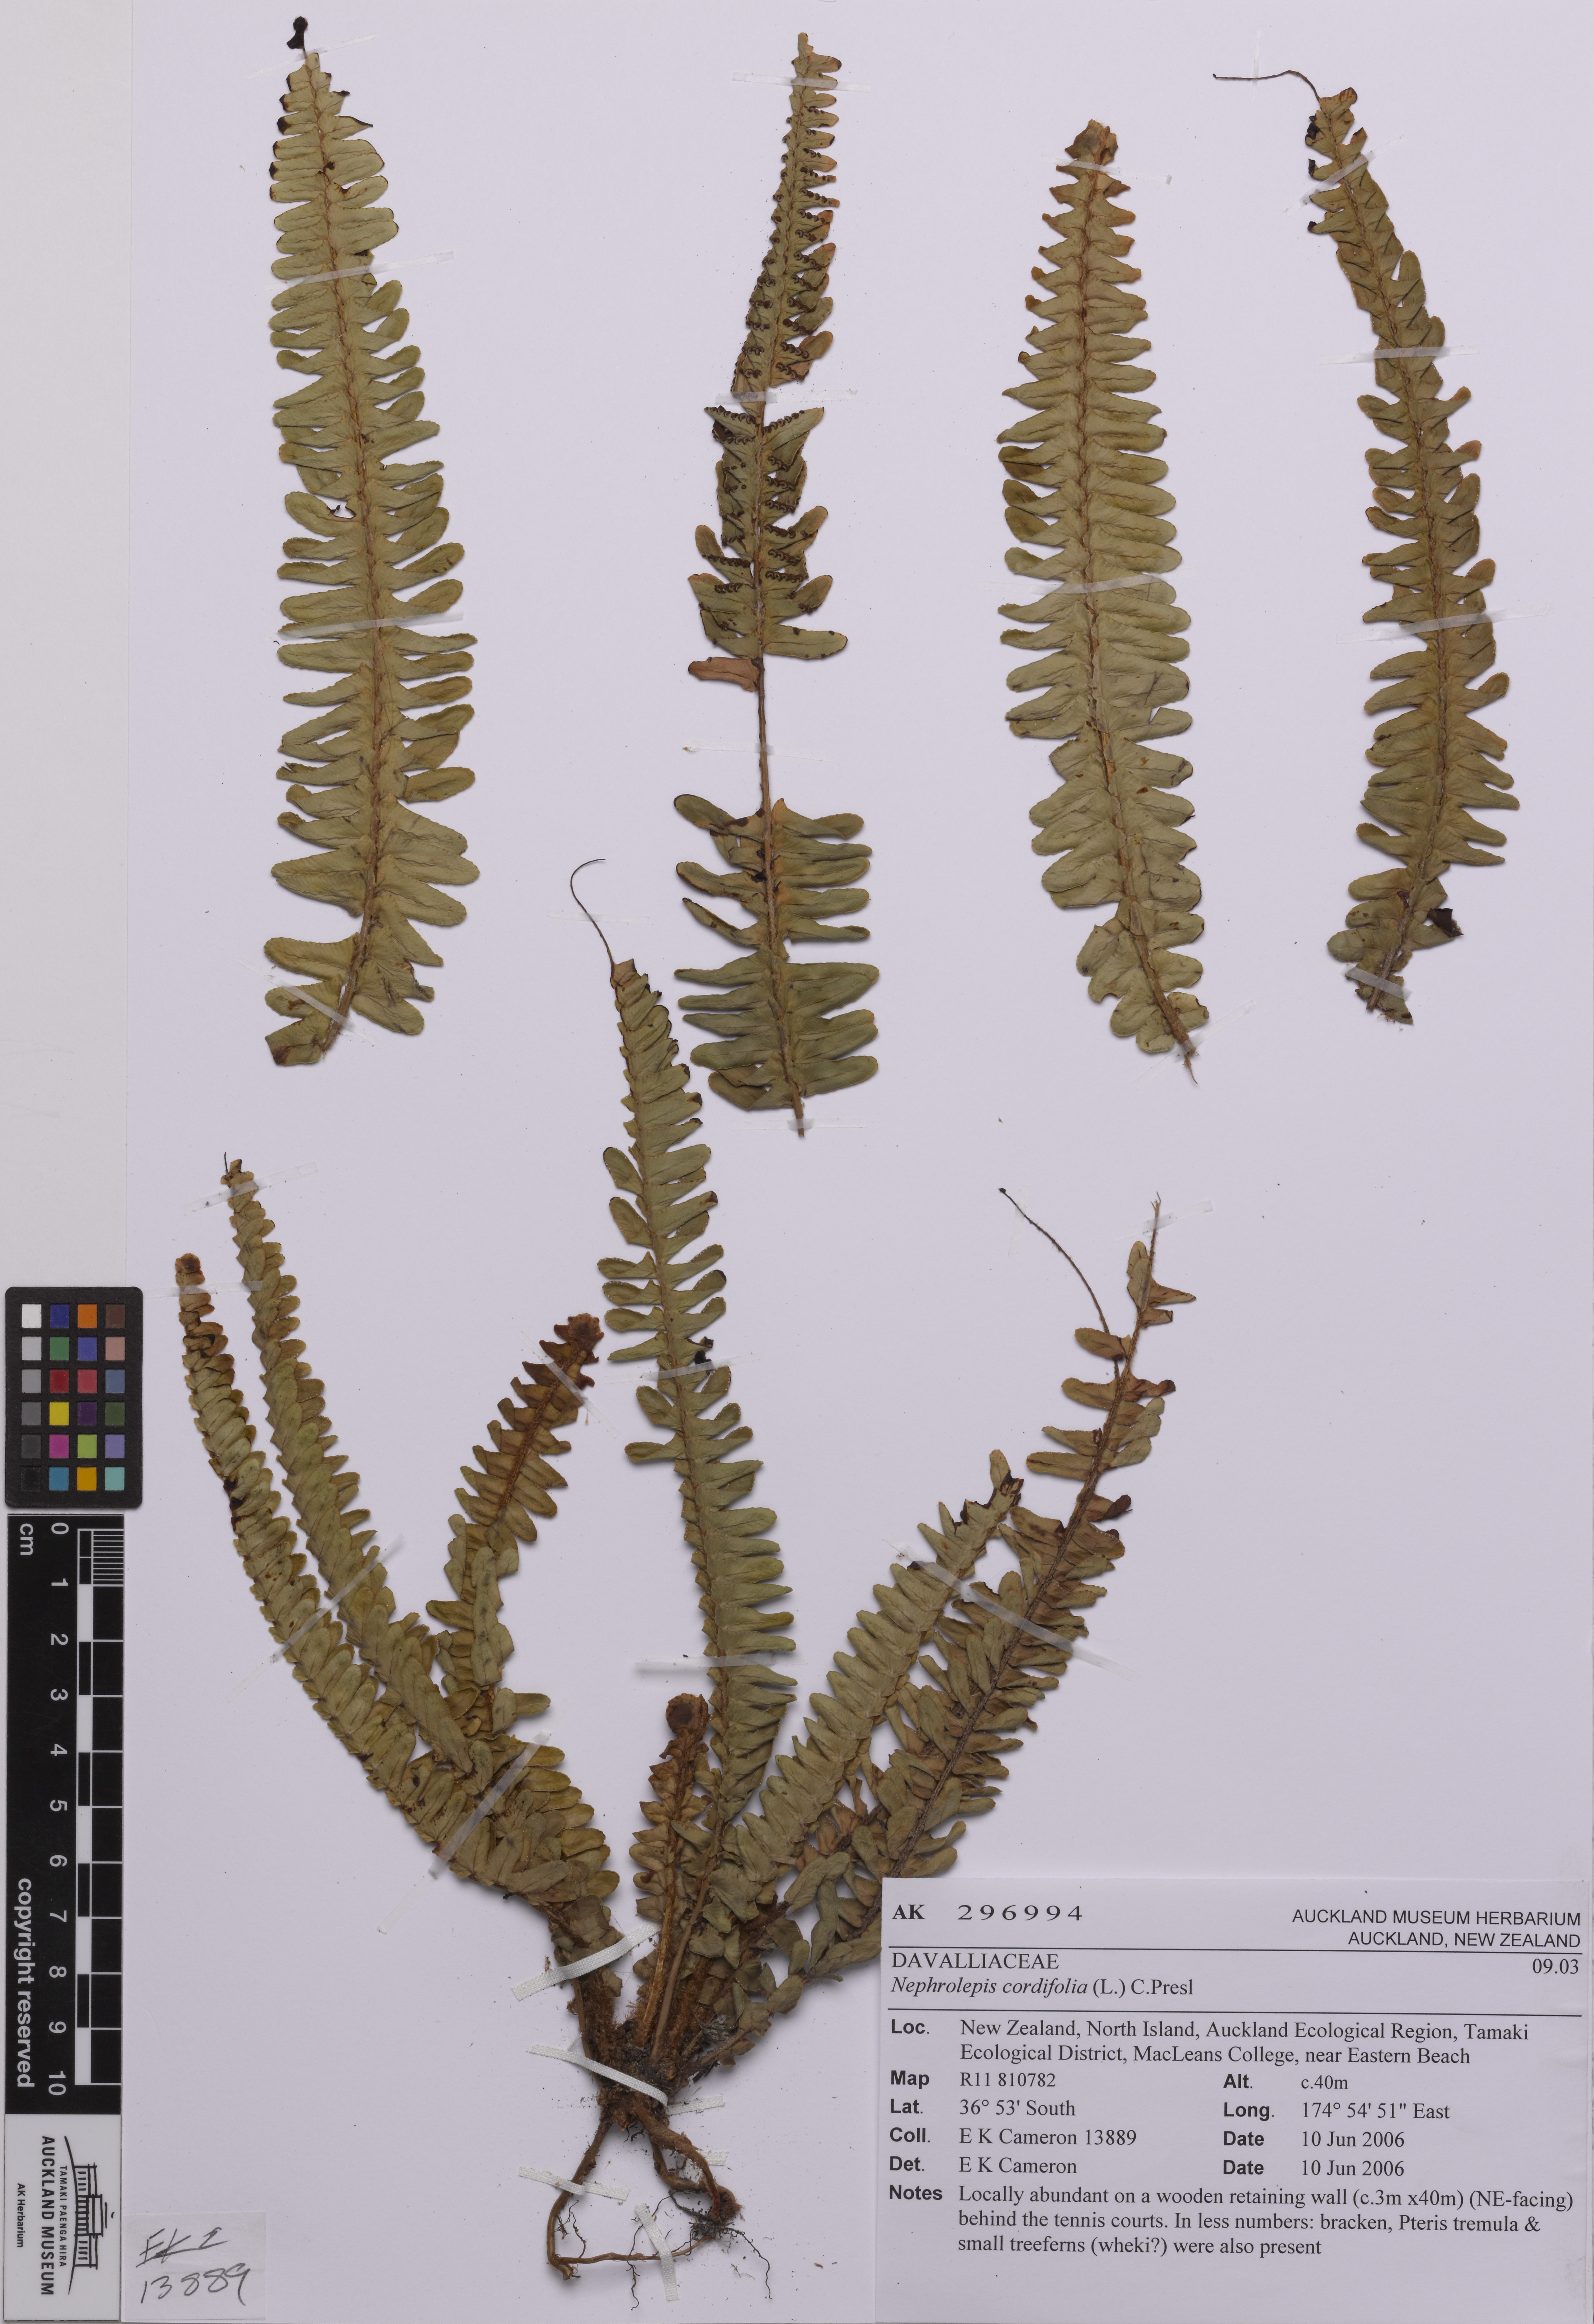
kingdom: Plantae
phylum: Tracheophyta
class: Polypodiopsida
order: Polypodiales
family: Nephrolepidaceae
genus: Nephrolepis
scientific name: Nephrolepis cordifolia
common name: Narrow swordfern
